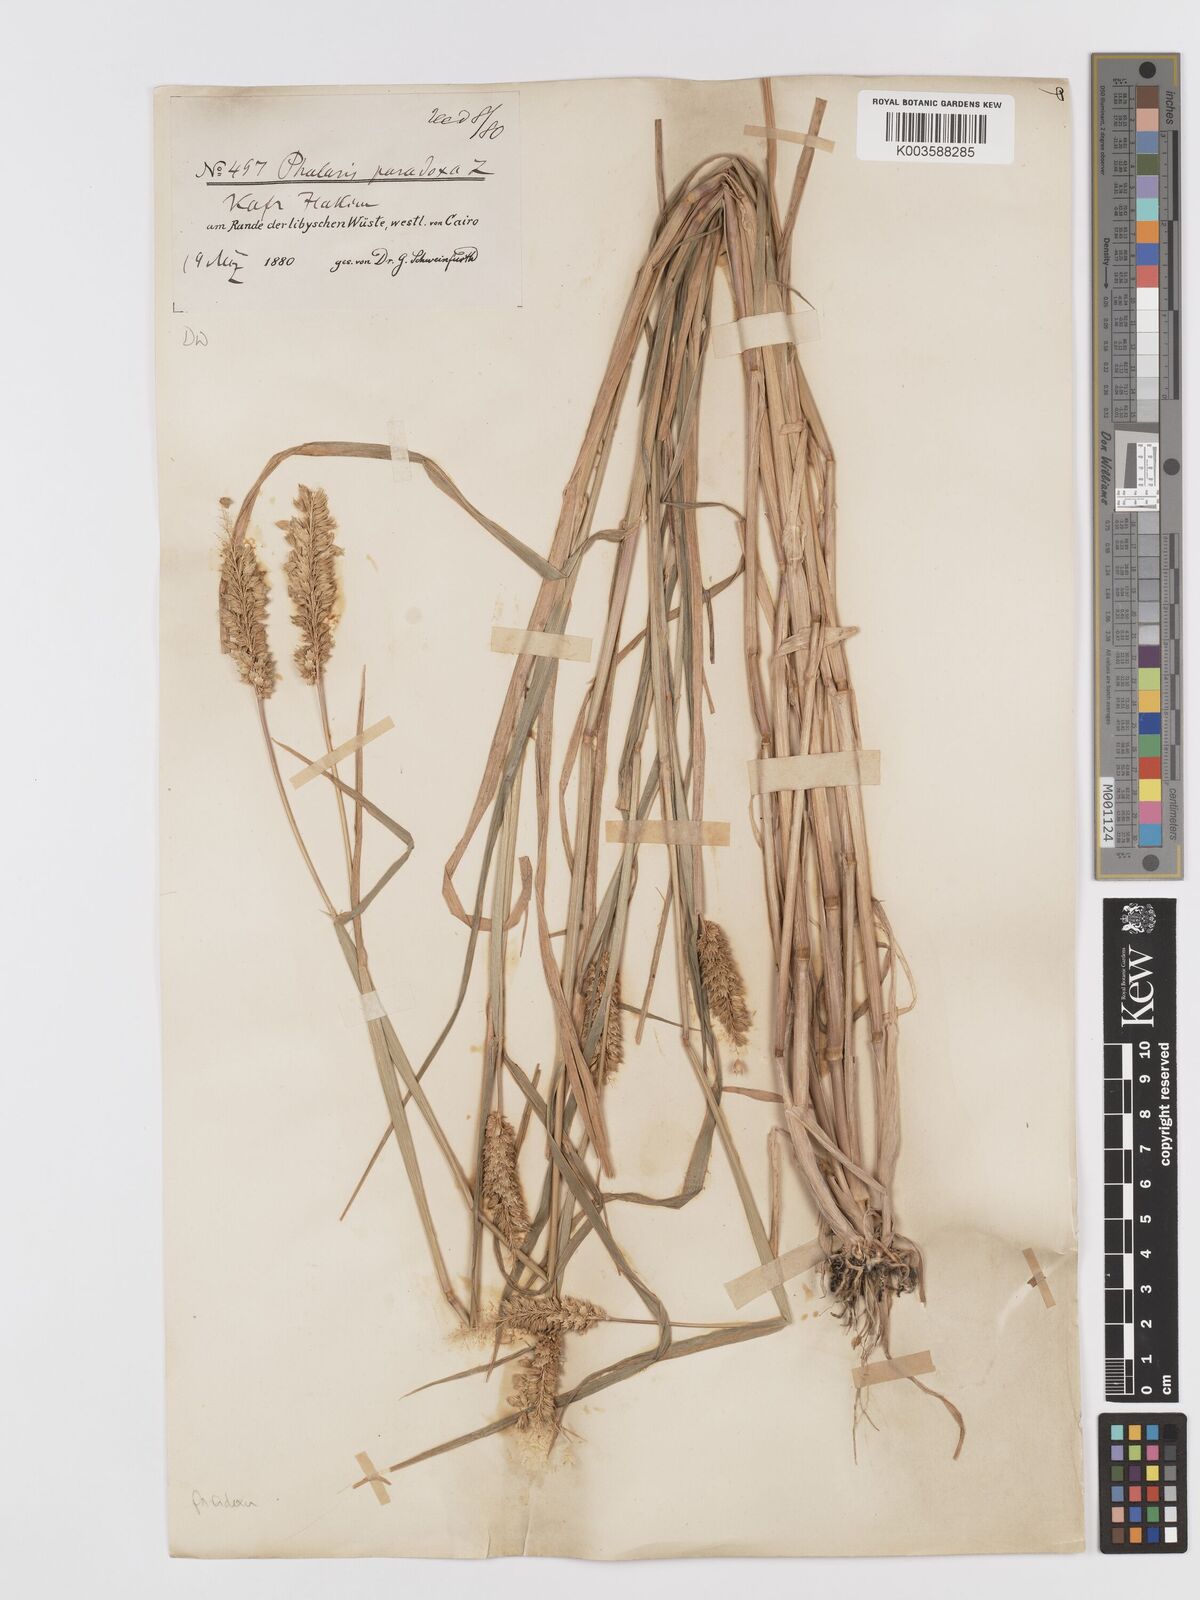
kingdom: Plantae
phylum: Tracheophyta
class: Liliopsida
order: Poales
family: Poaceae
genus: Phalaris
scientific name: Phalaris paradoxa
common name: Awned canary-grass
